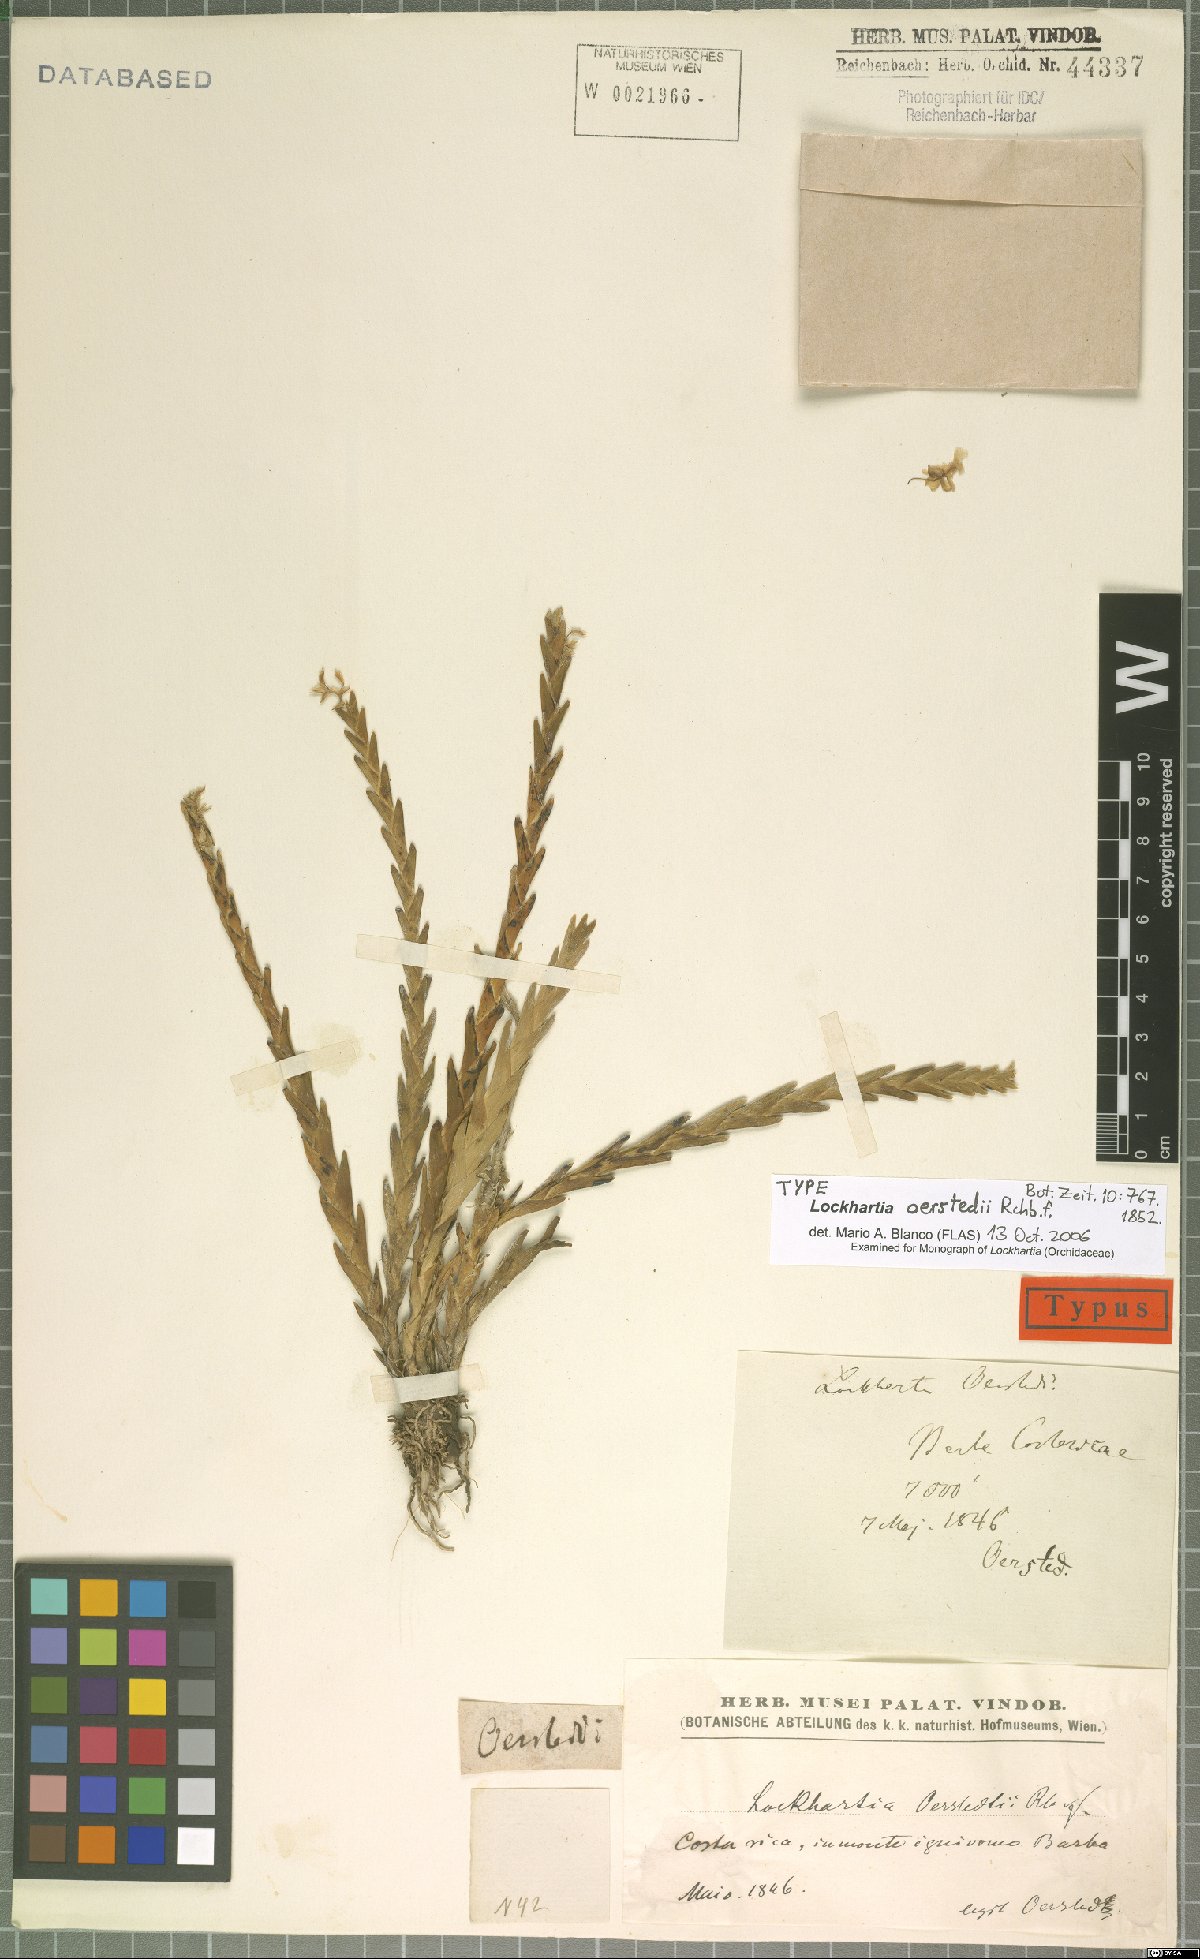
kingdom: Plantae
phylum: Tracheophyta
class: Liliopsida
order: Asparagales
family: Orchidaceae
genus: Lockhartia
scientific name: Lockhartia oerstedii
